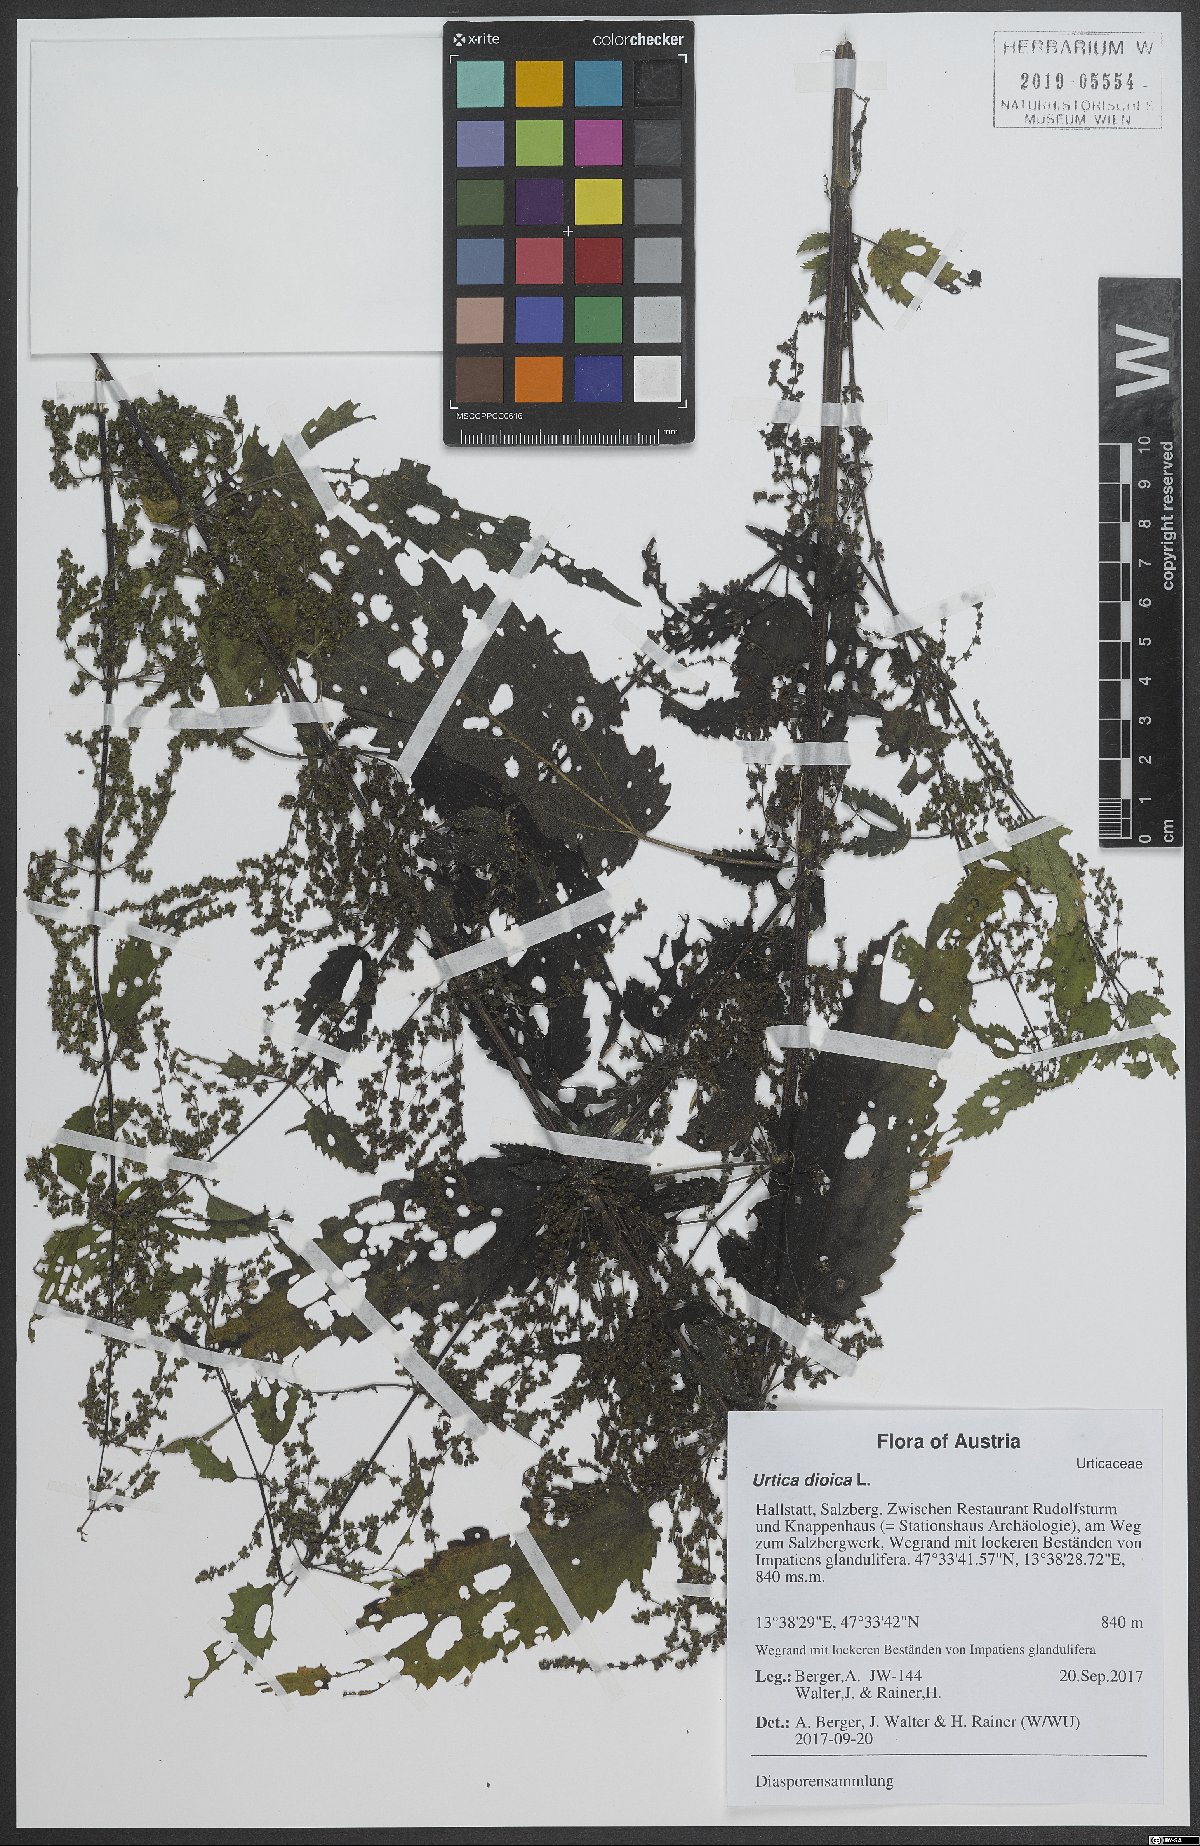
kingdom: Plantae
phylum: Tracheophyta
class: Magnoliopsida
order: Rosales
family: Urticaceae
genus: Urtica
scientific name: Urtica dioica
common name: Common nettle
